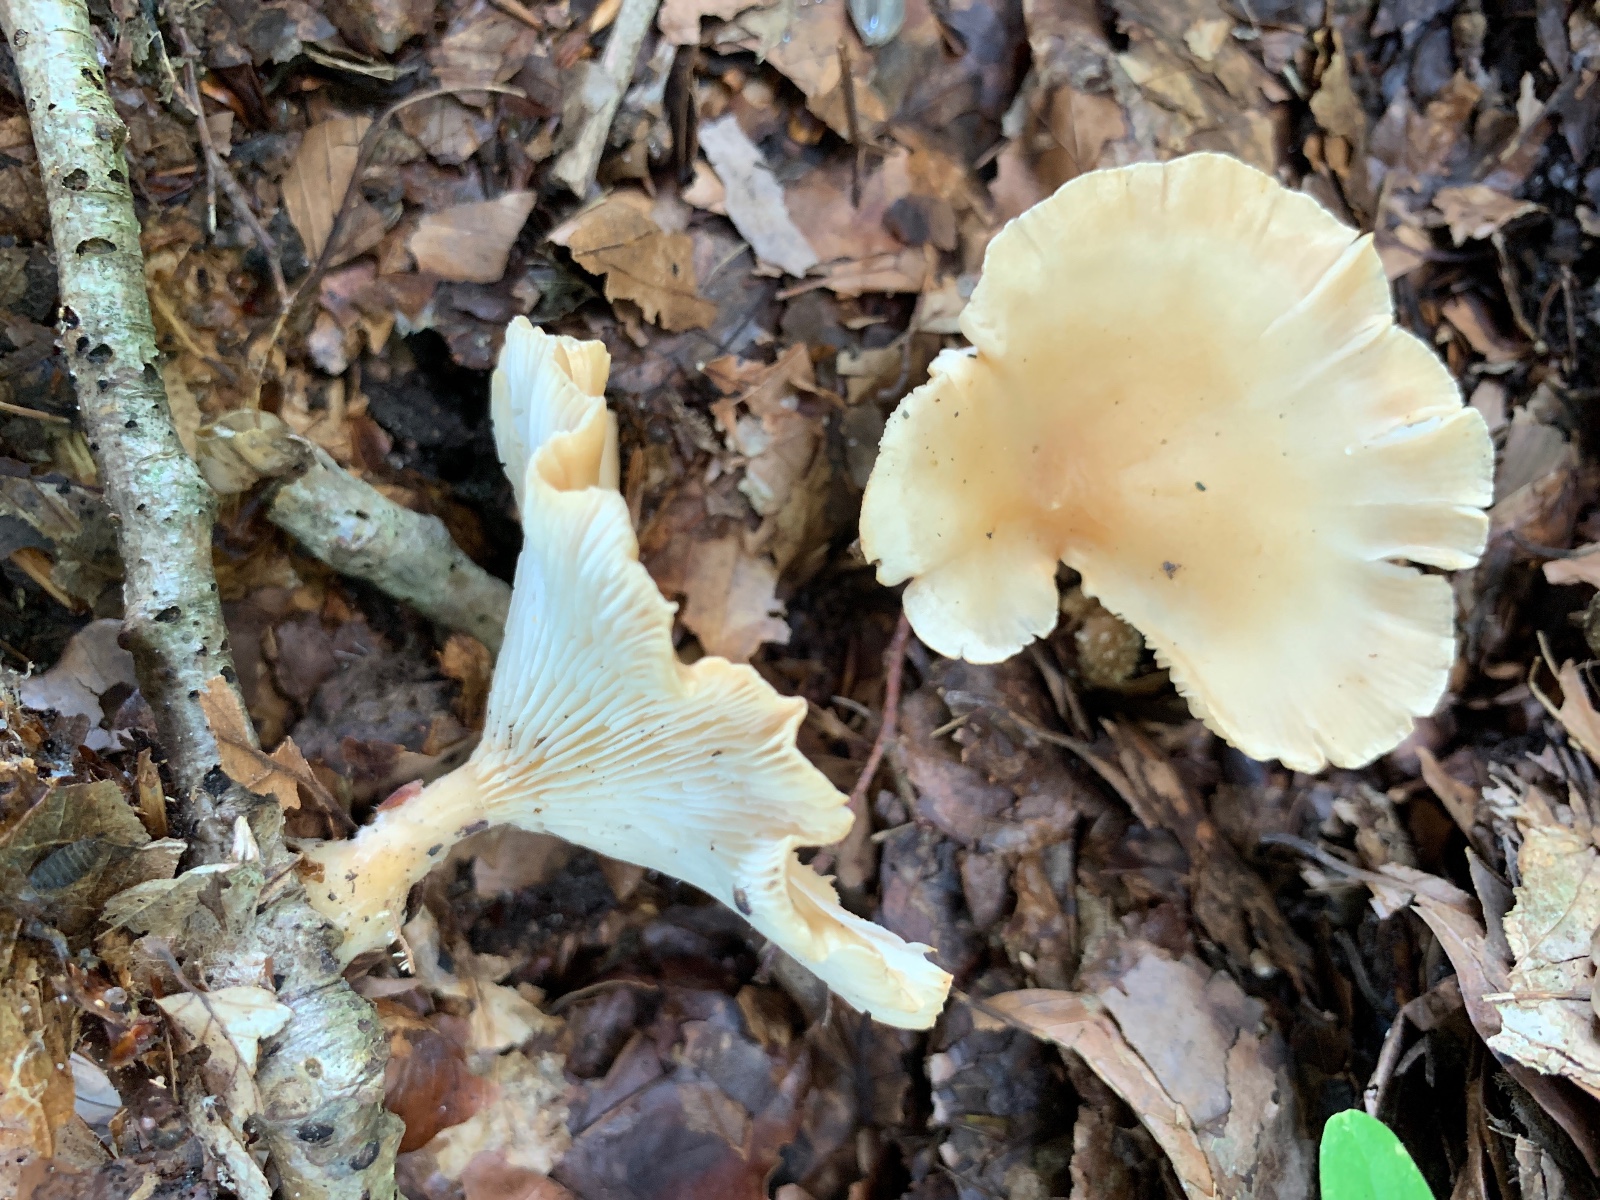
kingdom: Fungi
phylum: Basidiomycota
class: Agaricomycetes
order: Agaricales
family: Tricholomataceae
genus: Infundibulicybe
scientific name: Infundibulicybe gibba
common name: almindelig tragthat
